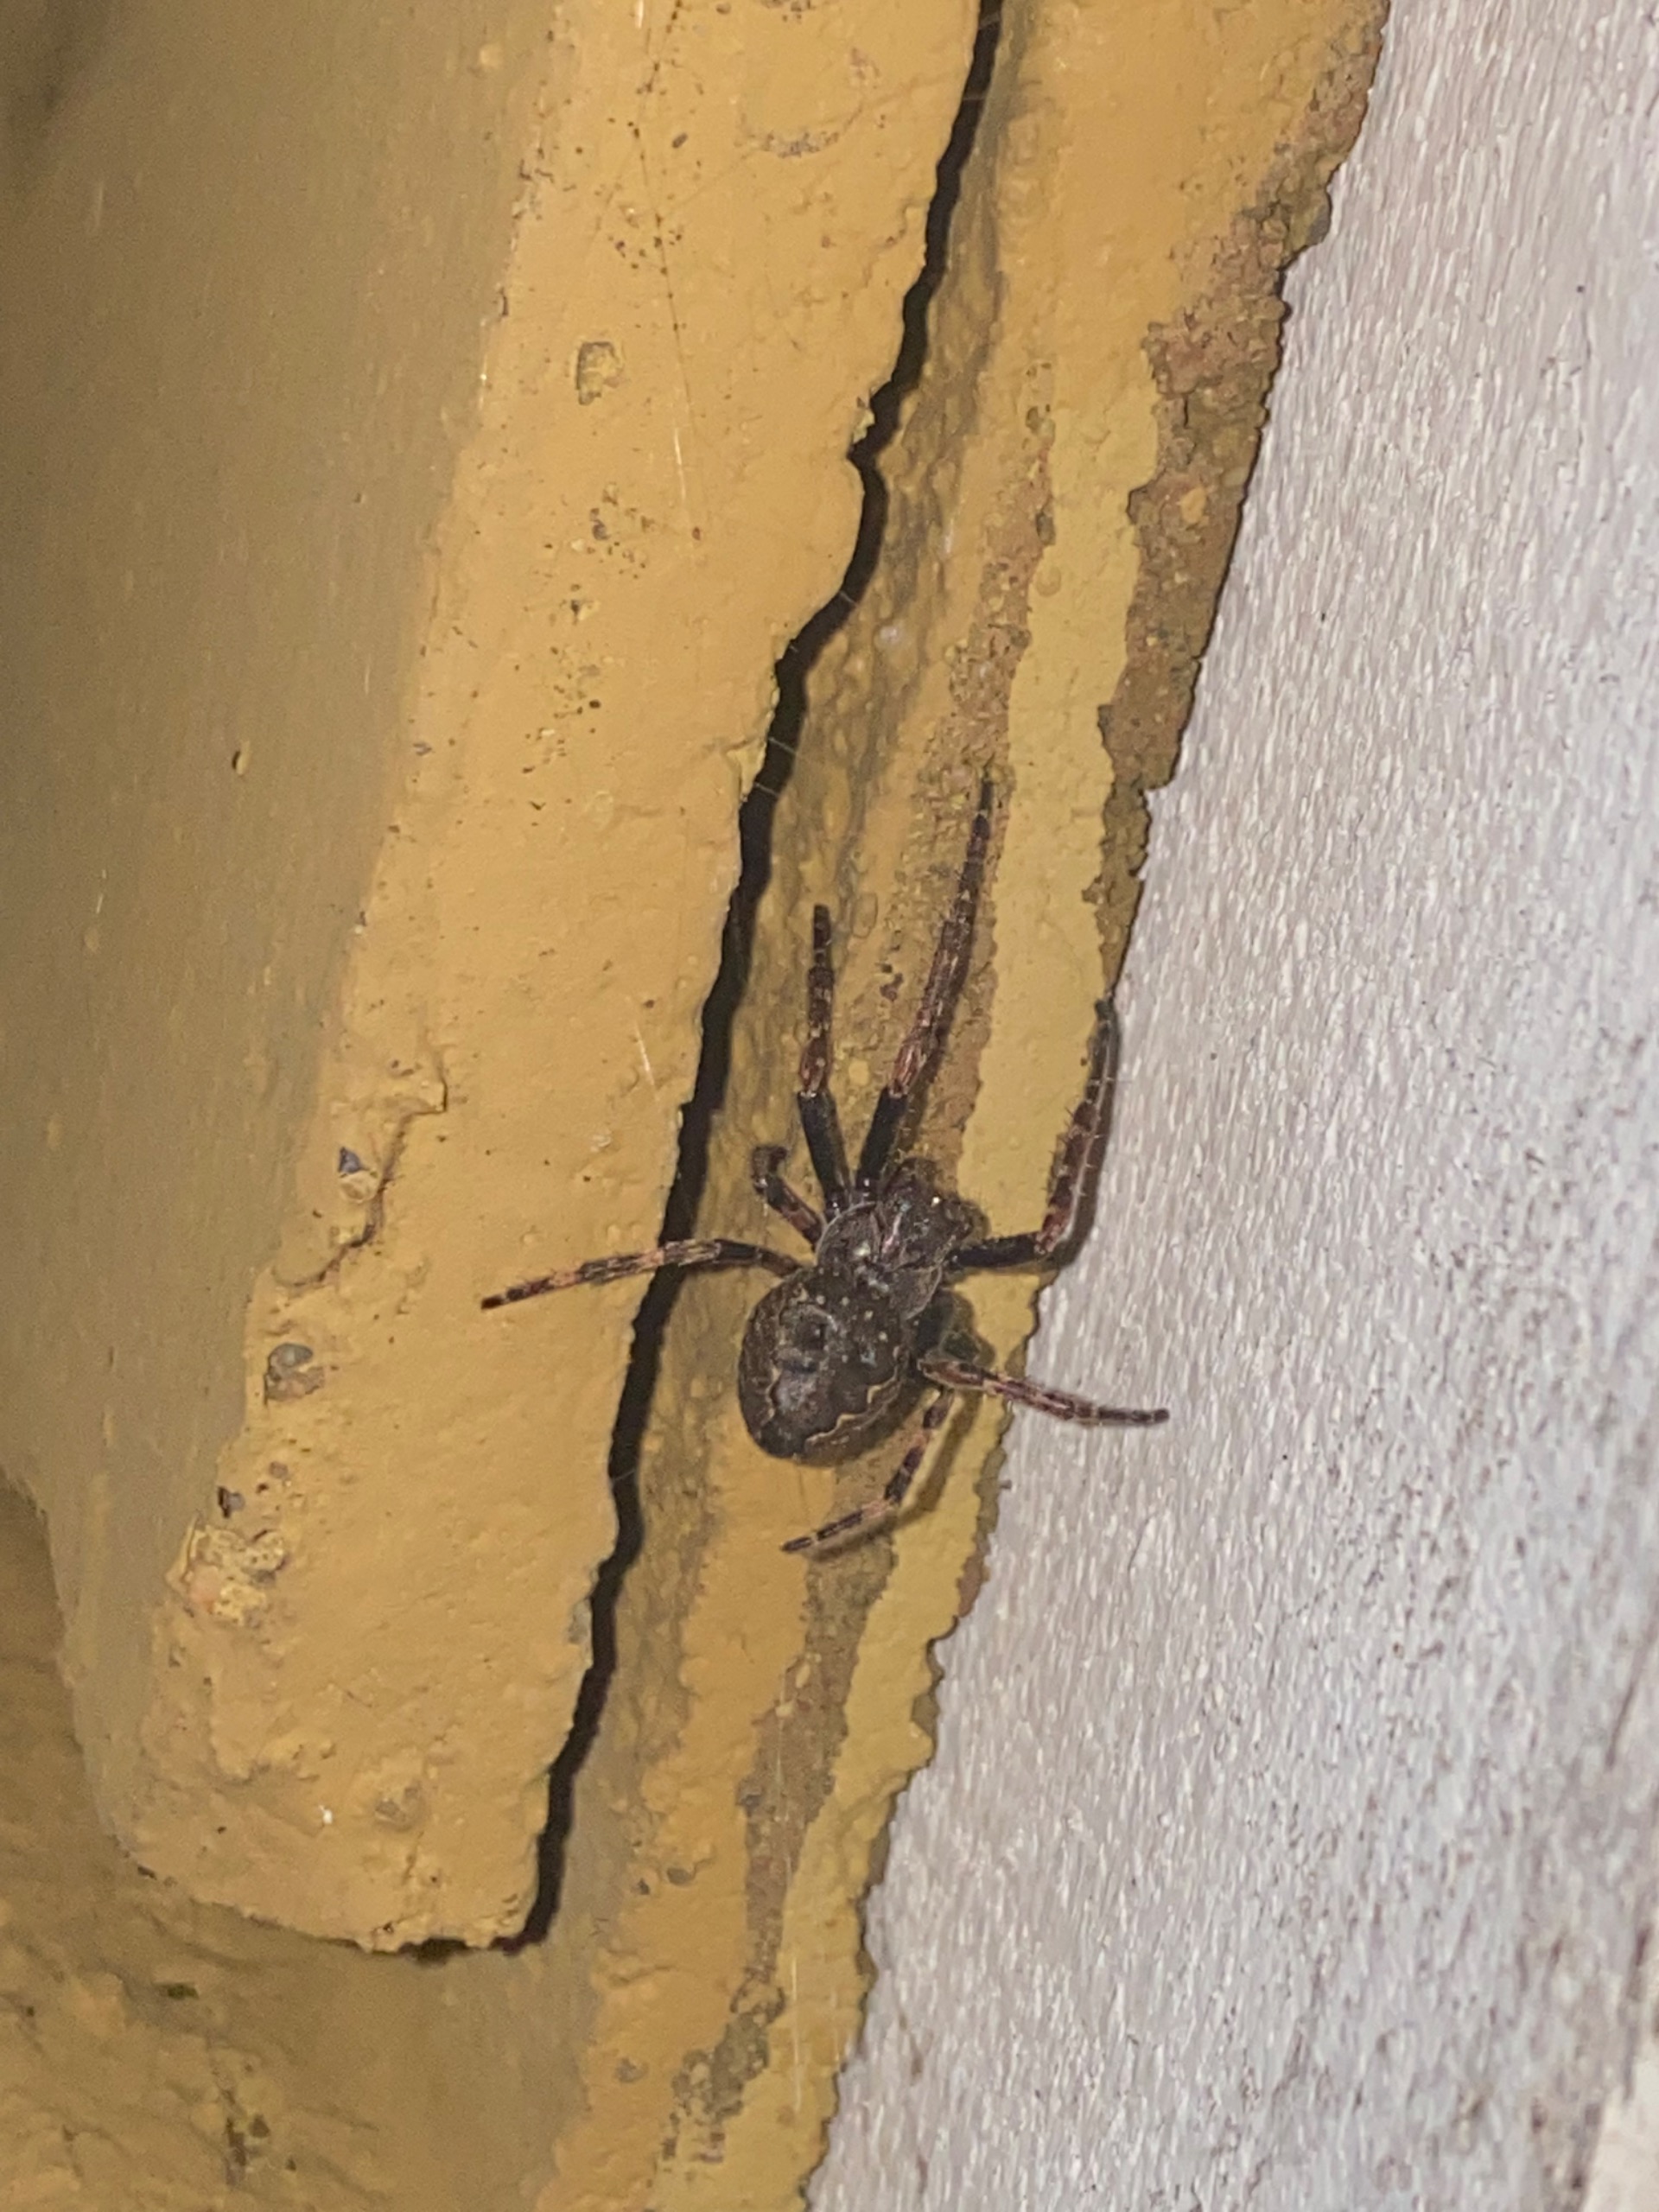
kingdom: Animalia
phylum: Arthropoda
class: Arachnida
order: Araneae
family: Araneidae
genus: Nuctenea
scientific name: Nuctenea umbratica
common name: Flad hjulspinder
